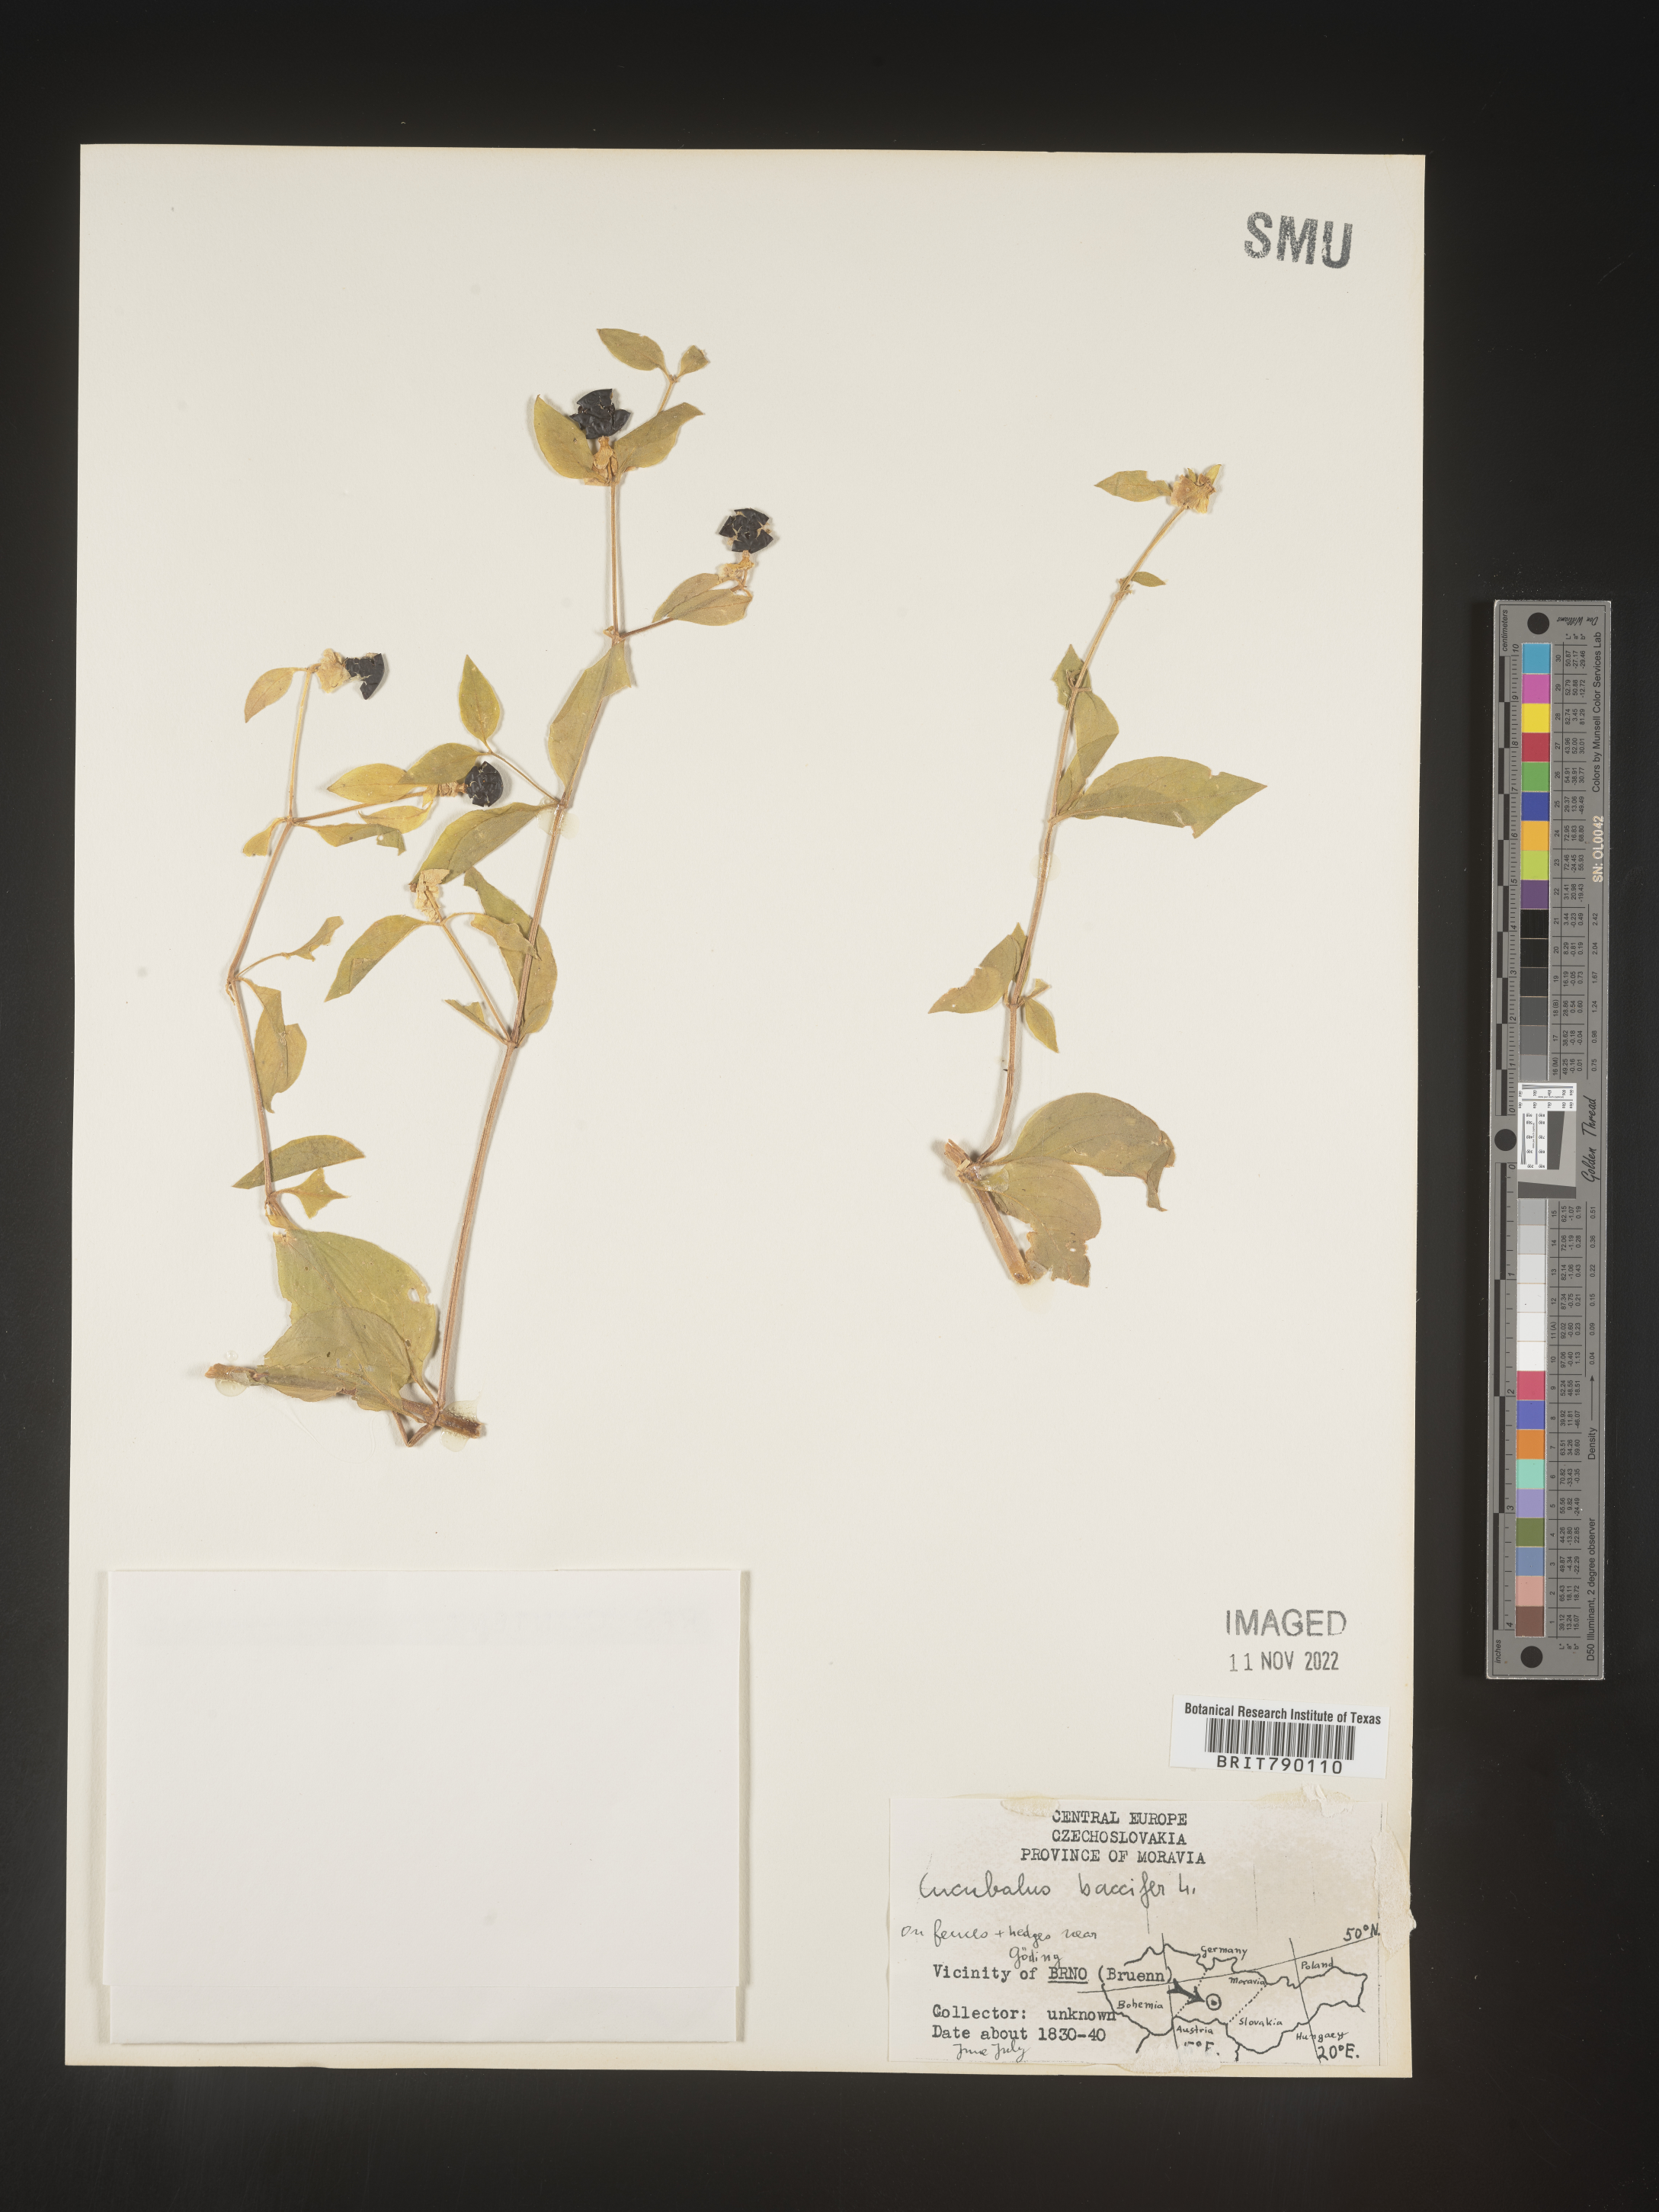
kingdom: Animalia
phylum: Cnidaria
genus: Cucubalus
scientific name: Cucubalus
